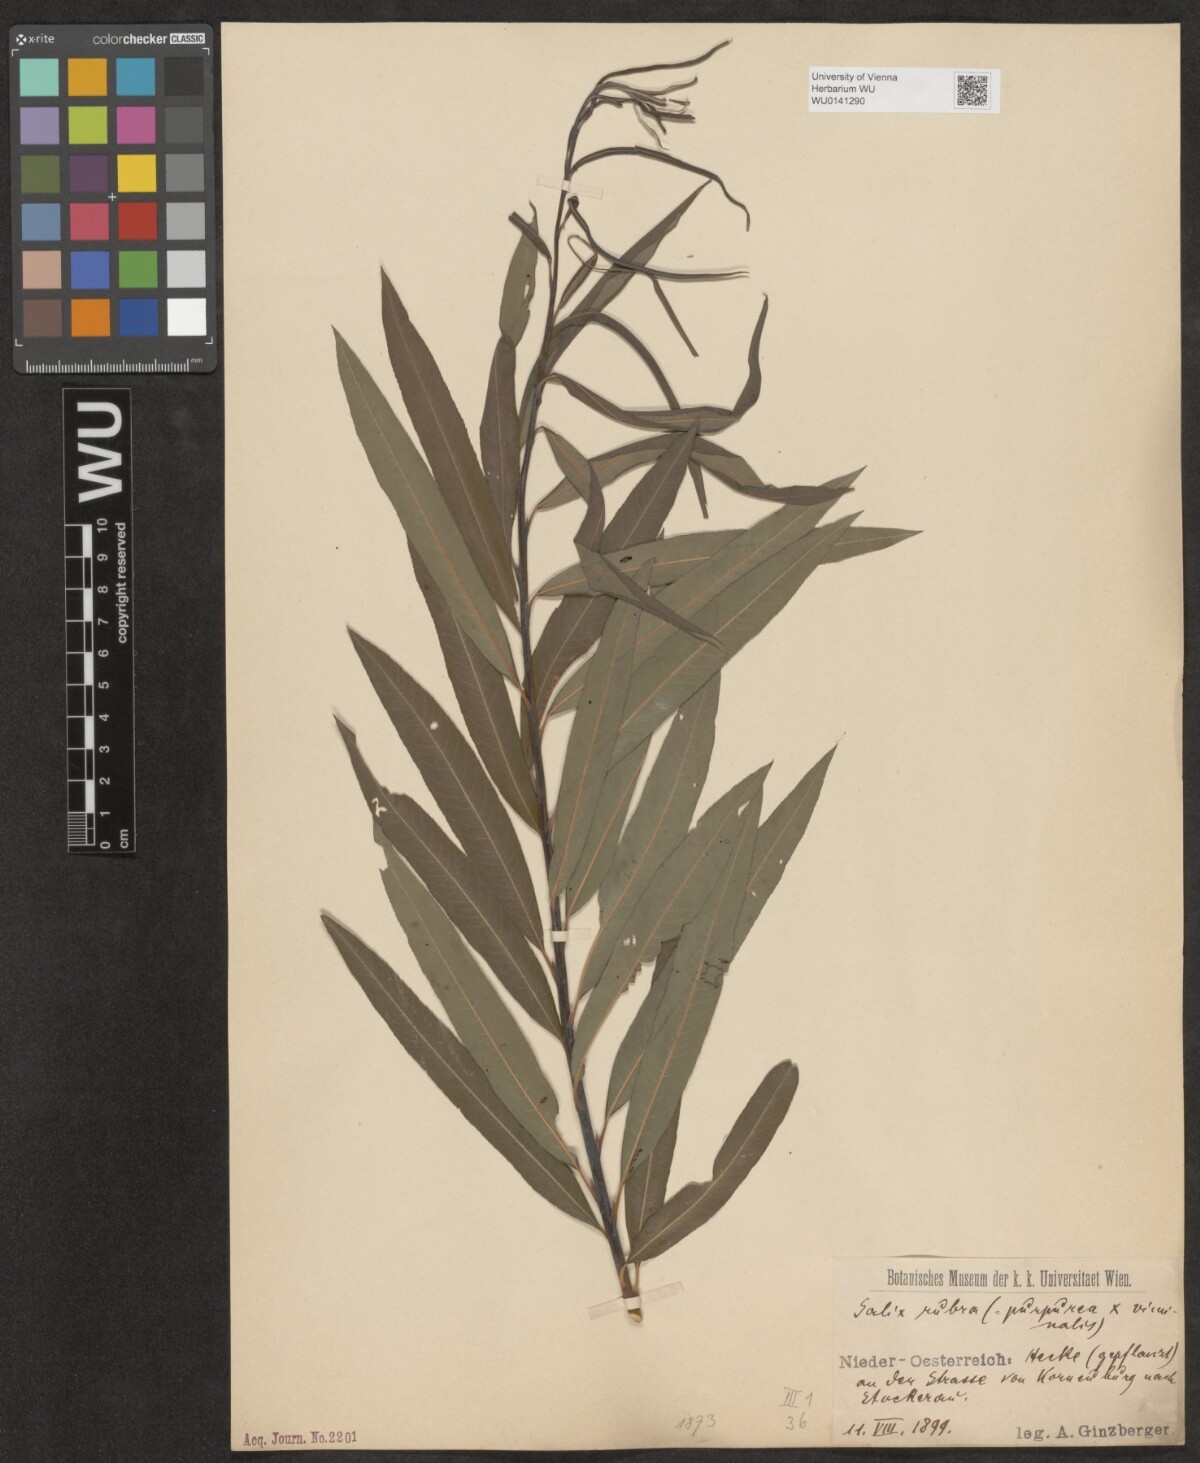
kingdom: Plantae
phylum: Tracheophyta
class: Magnoliopsida
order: Malpighiales
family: Salicaceae
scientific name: Salicaceae
